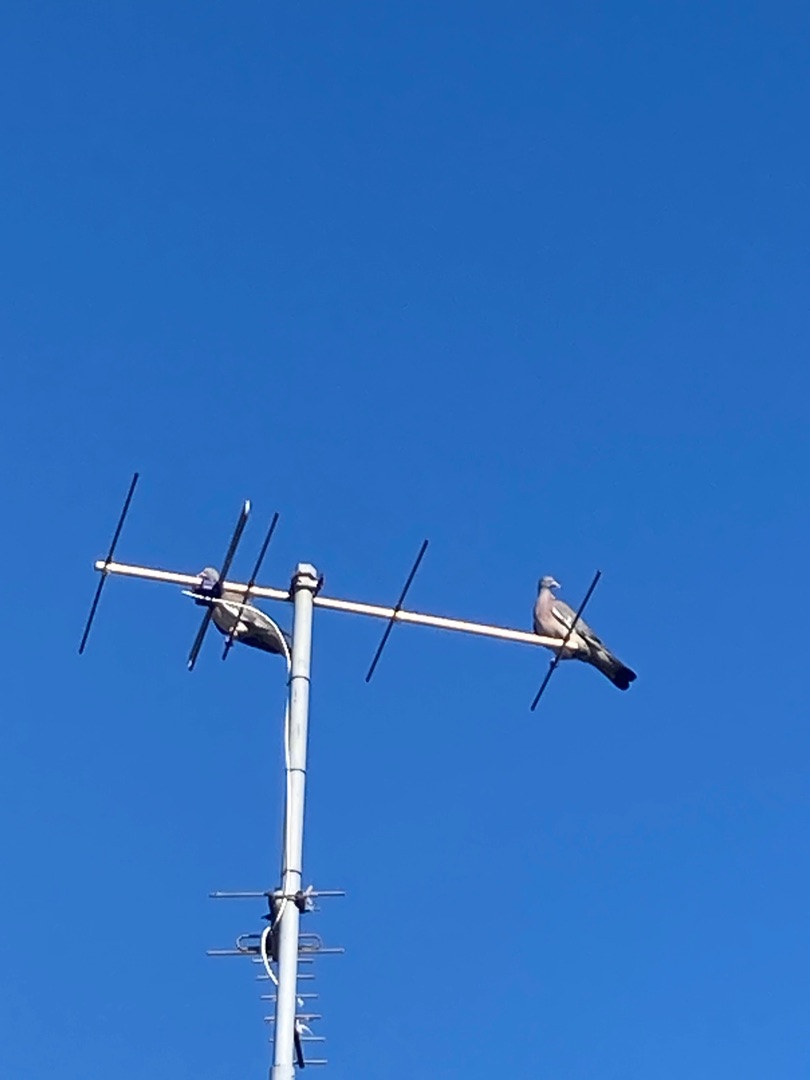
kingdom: Animalia
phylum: Chordata
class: Aves
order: Columbiformes
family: Columbidae
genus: Columba
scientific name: Columba palumbus
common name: Ringdue
